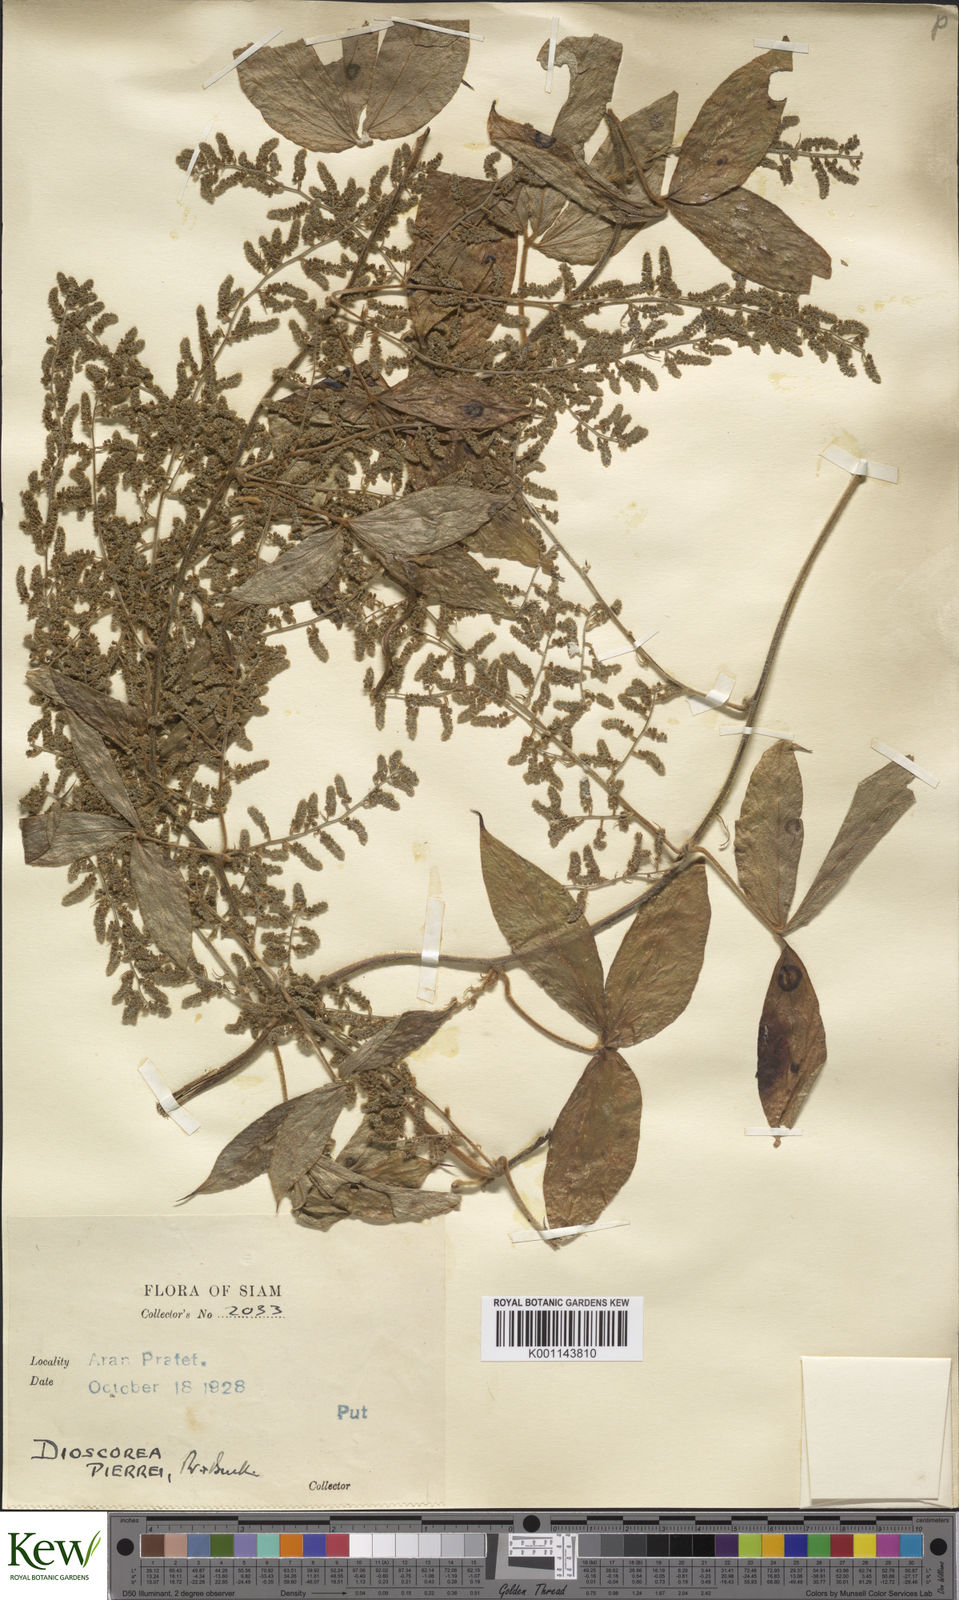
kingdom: Plantae
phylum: Tracheophyta
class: Liliopsida
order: Dioscoreales
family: Dioscoreaceae
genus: Dioscorea
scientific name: Dioscorea pierrei
